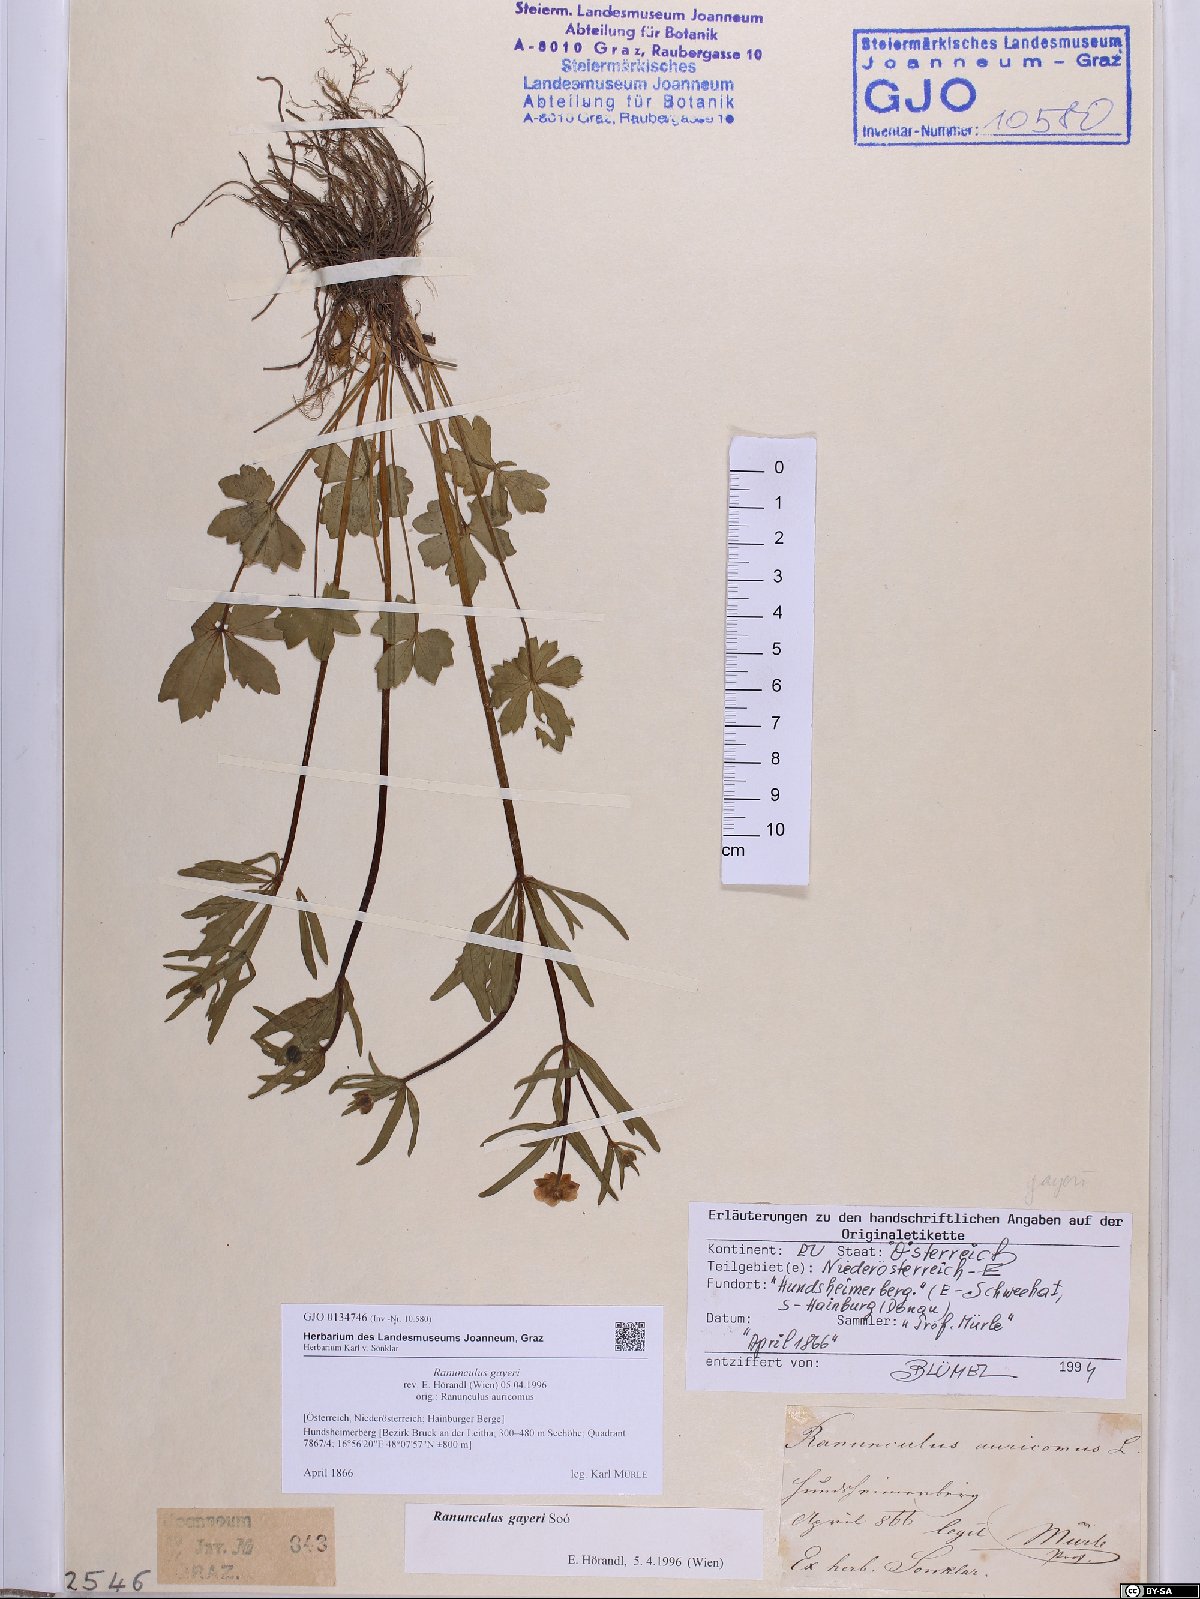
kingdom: Plantae
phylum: Tracheophyta
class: Magnoliopsida
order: Ranunculales
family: Ranunculaceae
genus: Ranunculus
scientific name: Ranunculus gayeri
